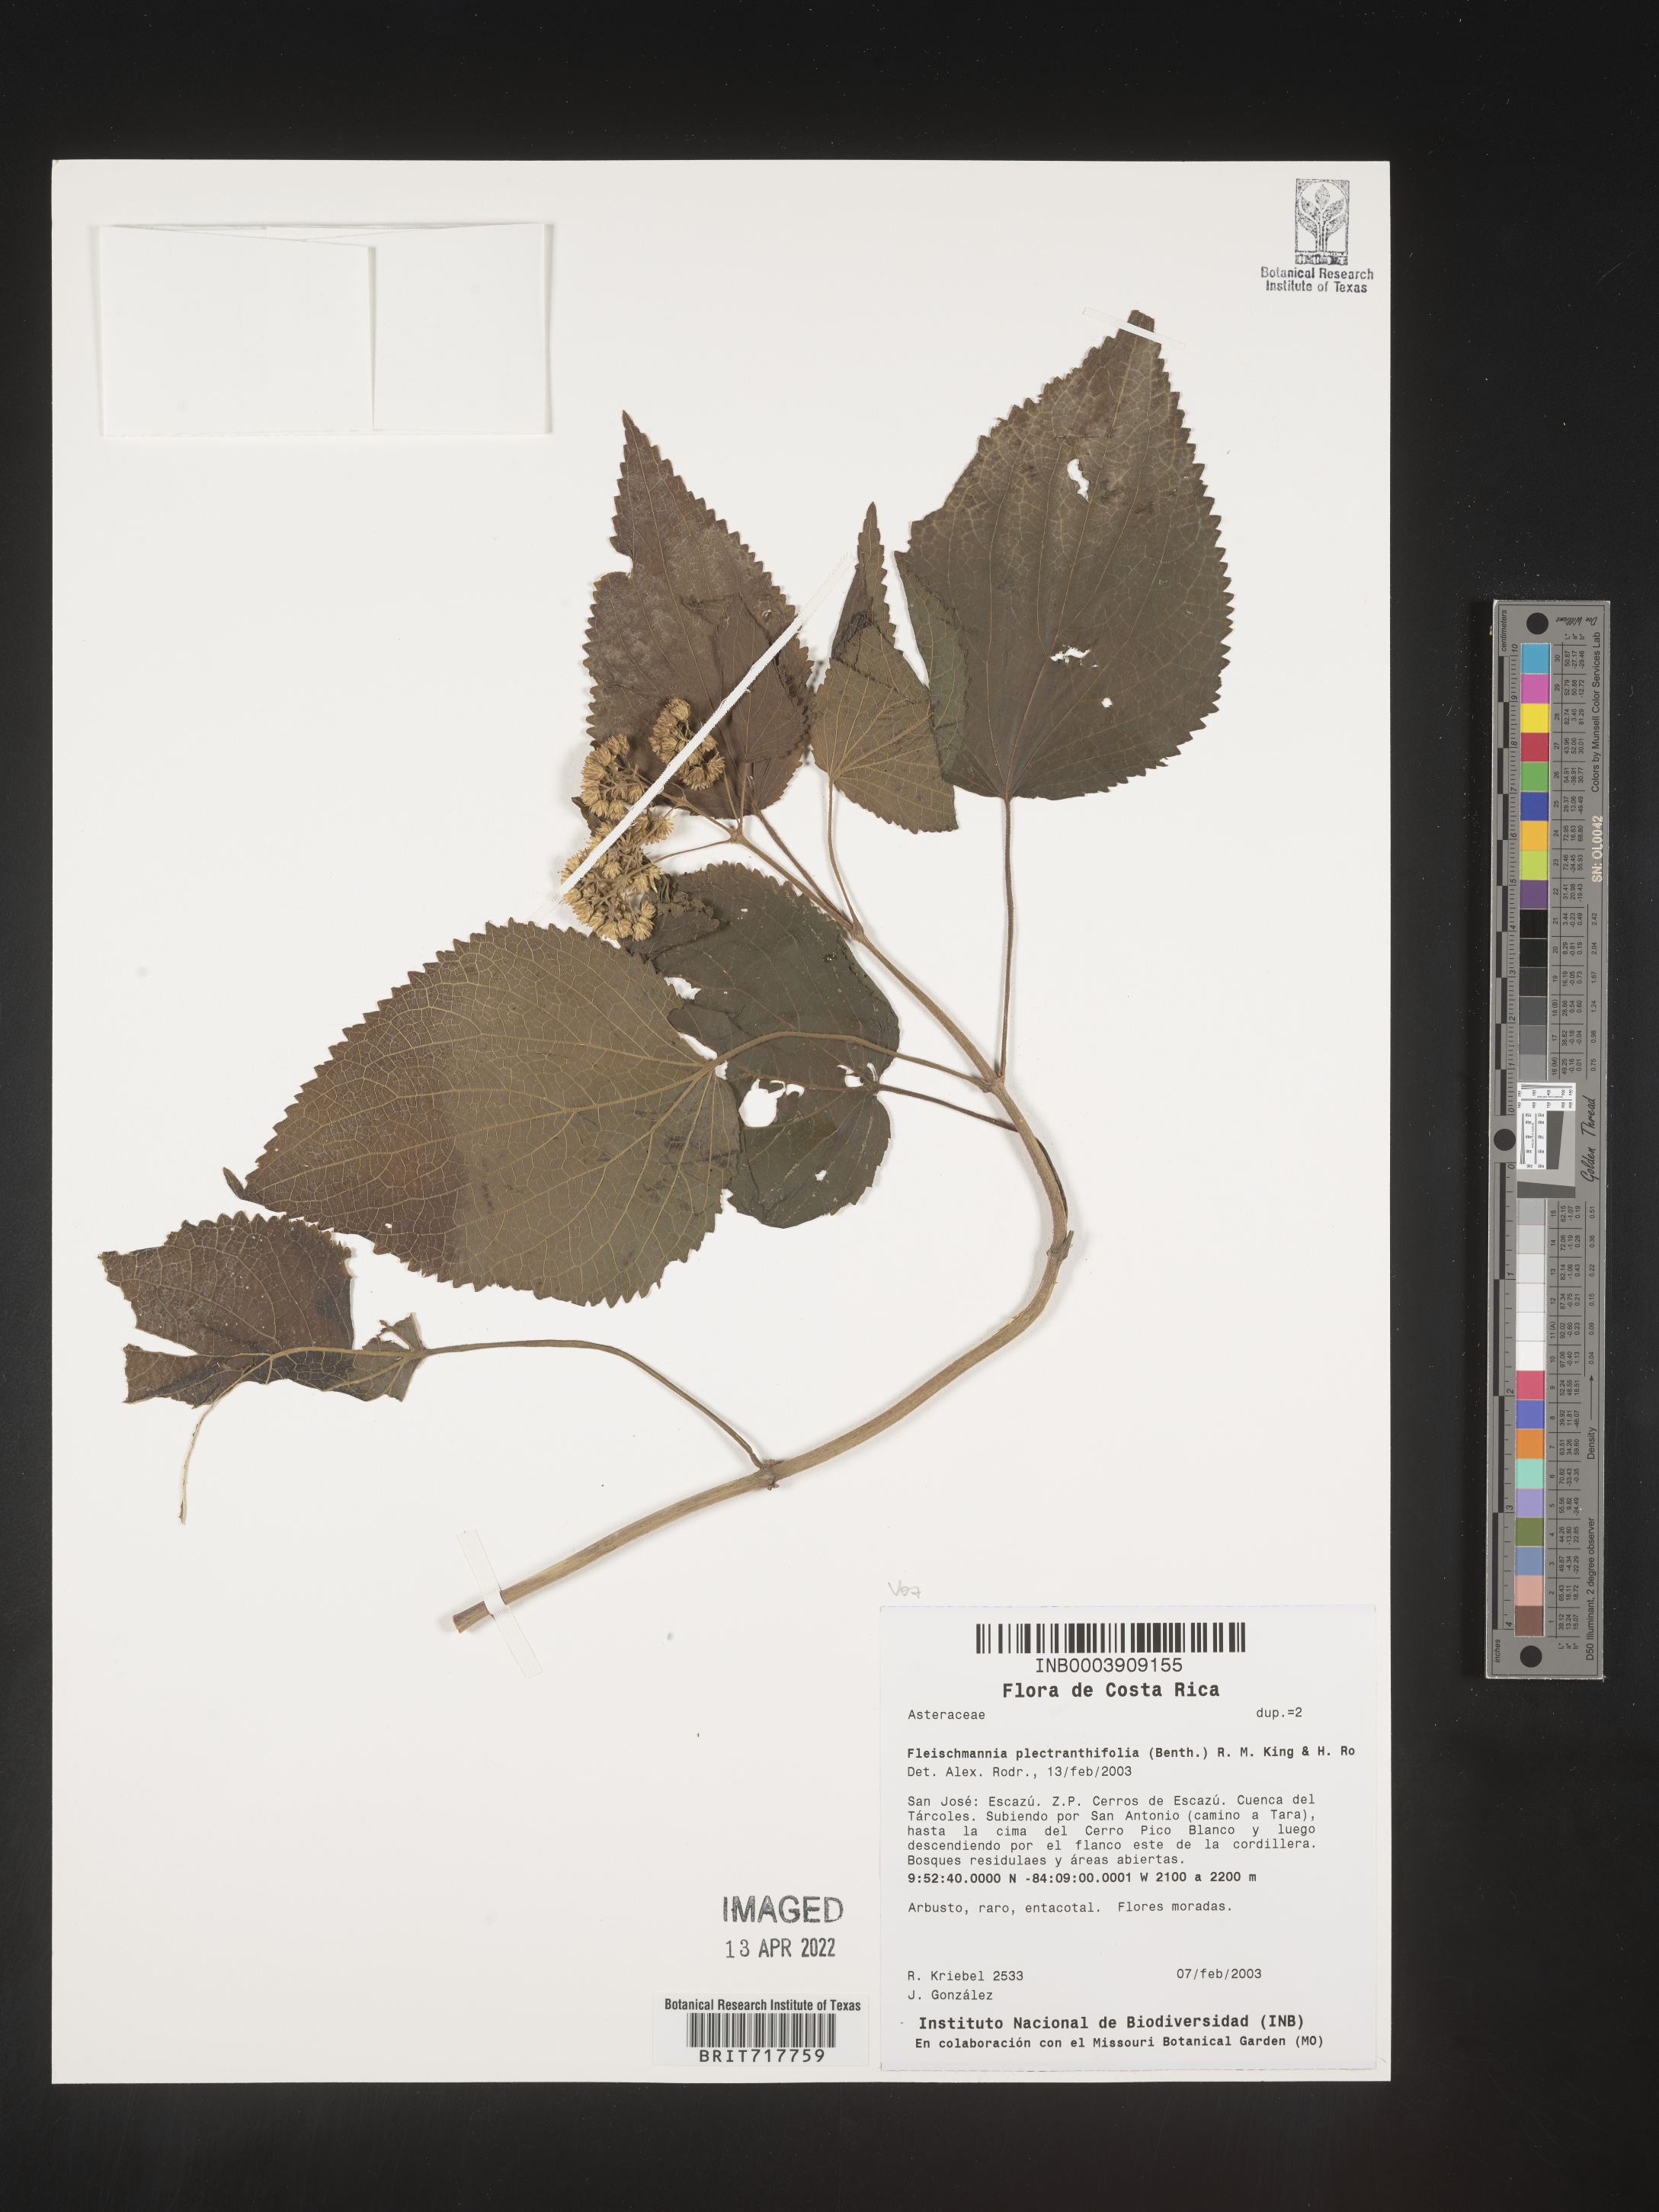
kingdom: Plantae
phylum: Tracheophyta
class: Magnoliopsida
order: Asterales
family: Asteraceae
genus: Fleischmannia
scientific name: Fleischmannia plectranthifolia
